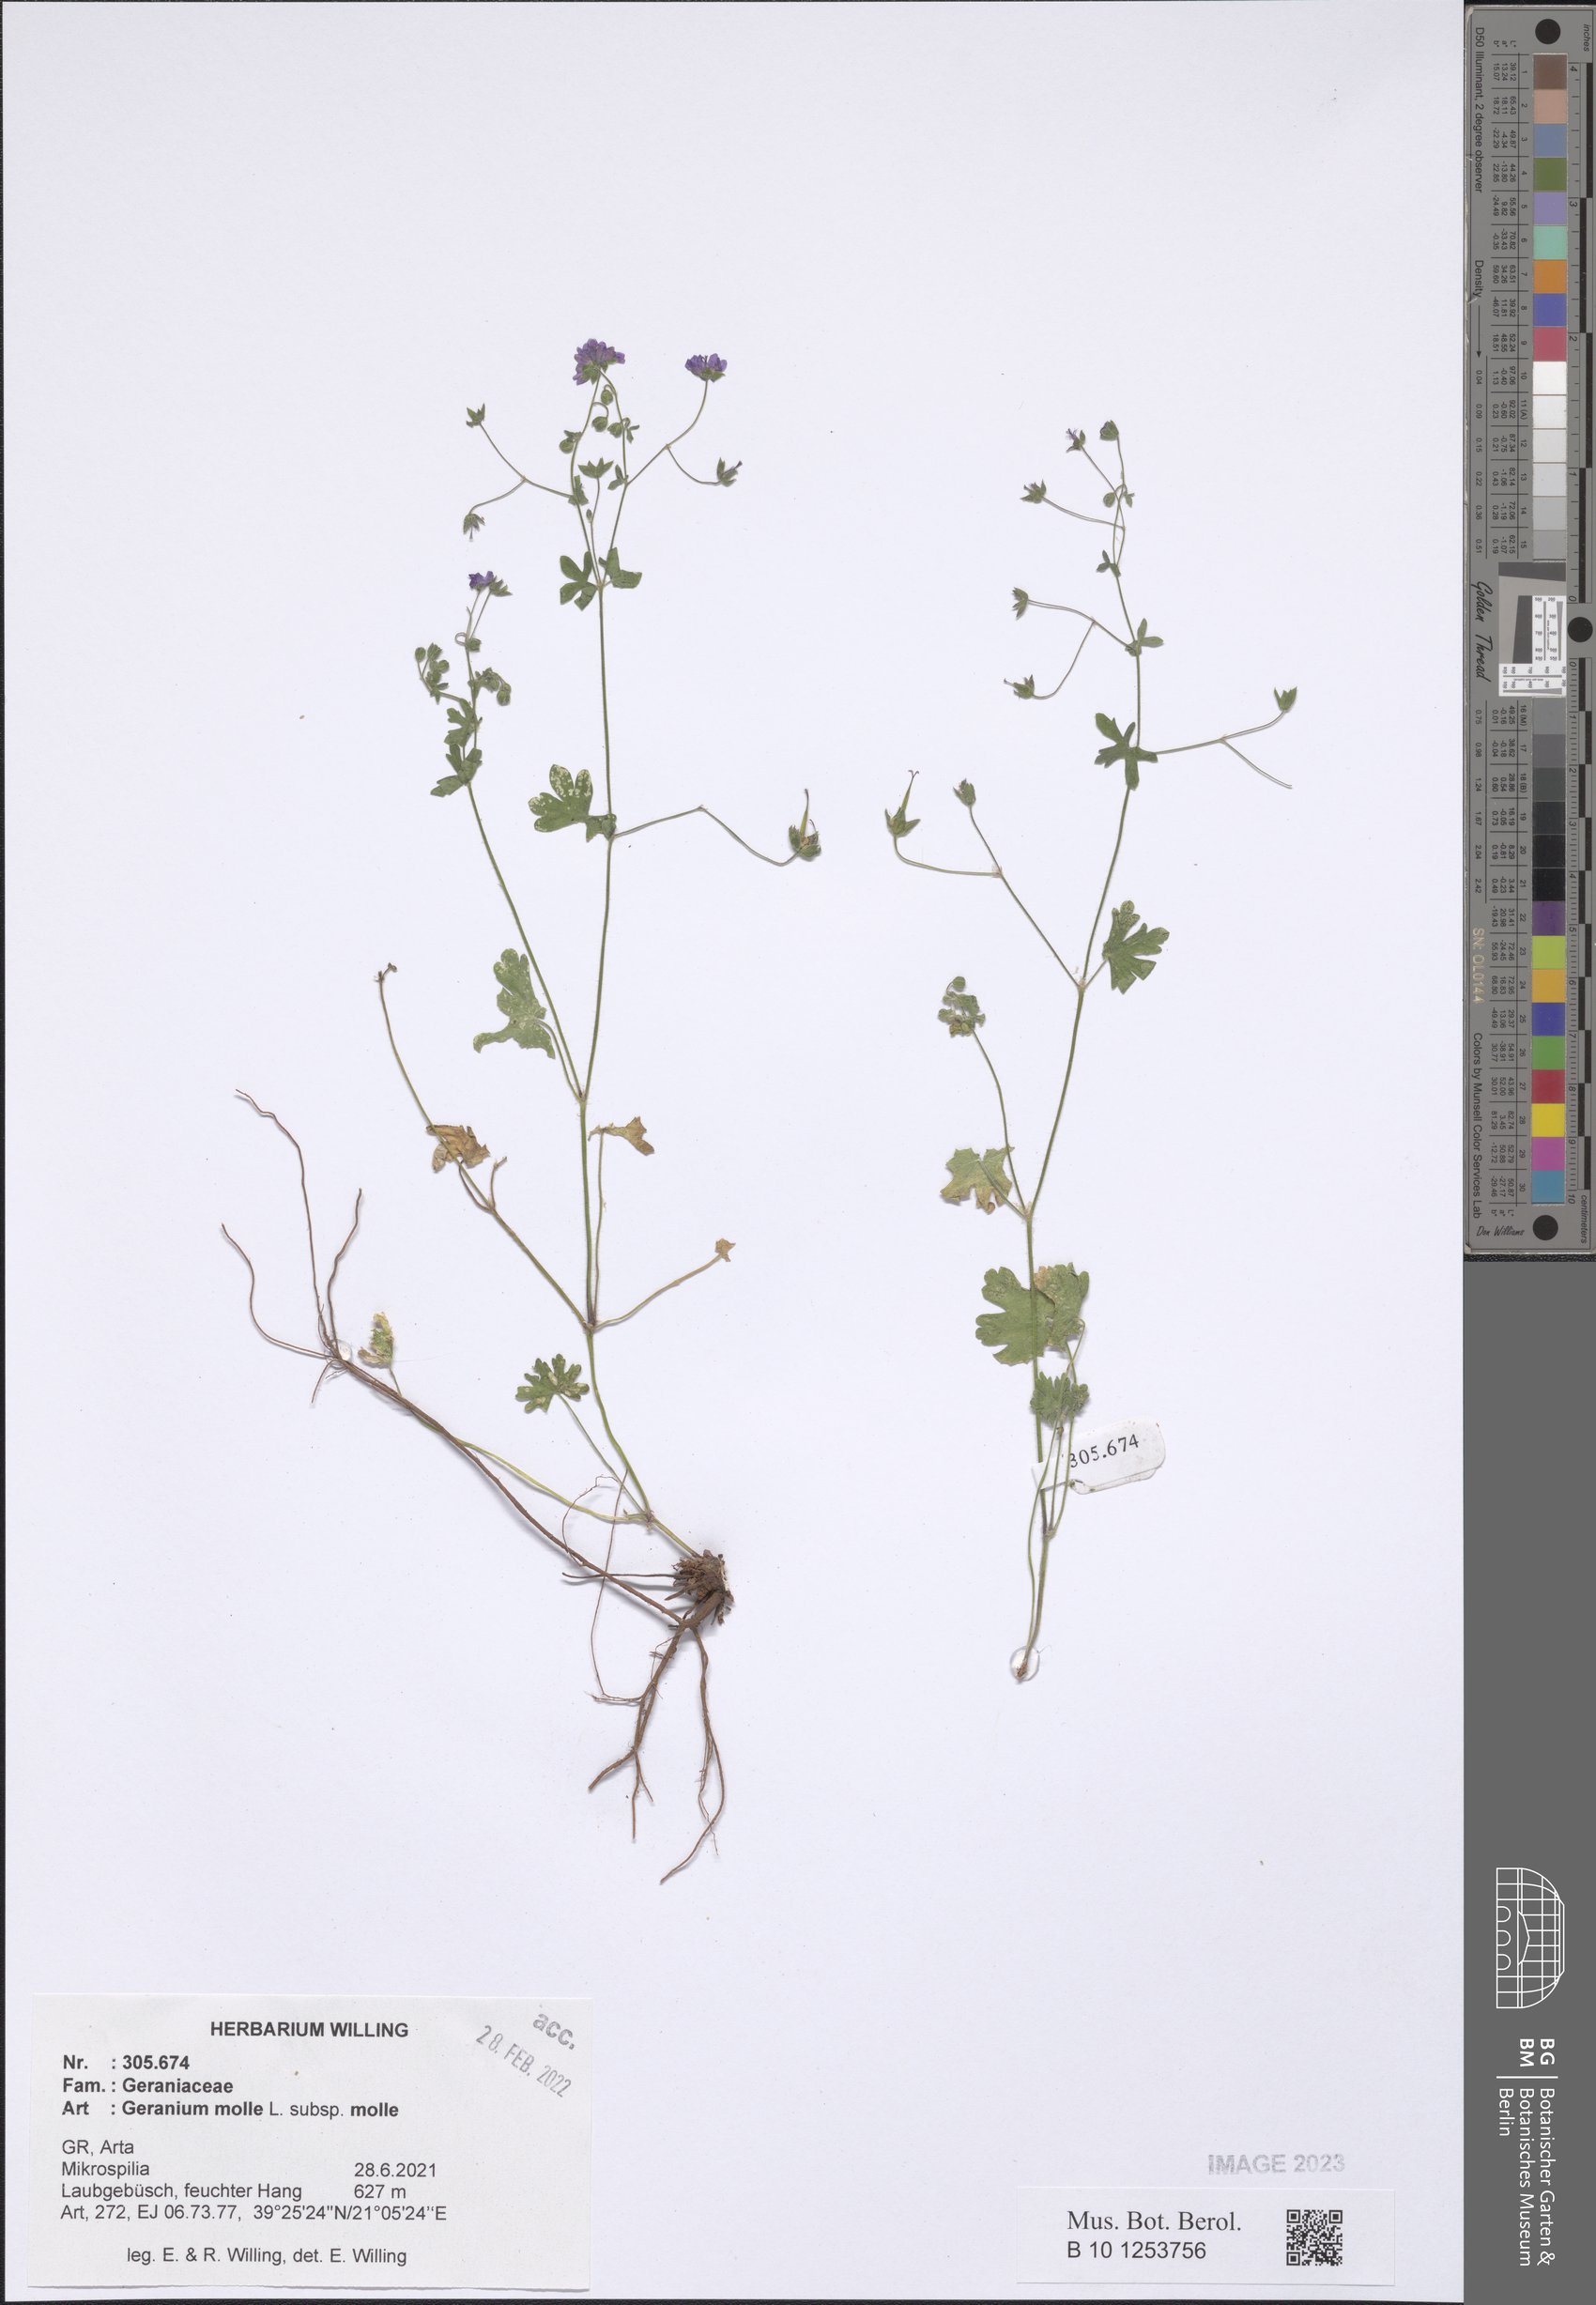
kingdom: Plantae
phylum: Tracheophyta
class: Magnoliopsida
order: Geraniales
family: Geraniaceae
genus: Geranium
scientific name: Geranium molle
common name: Dove's-foot crane's-bill
